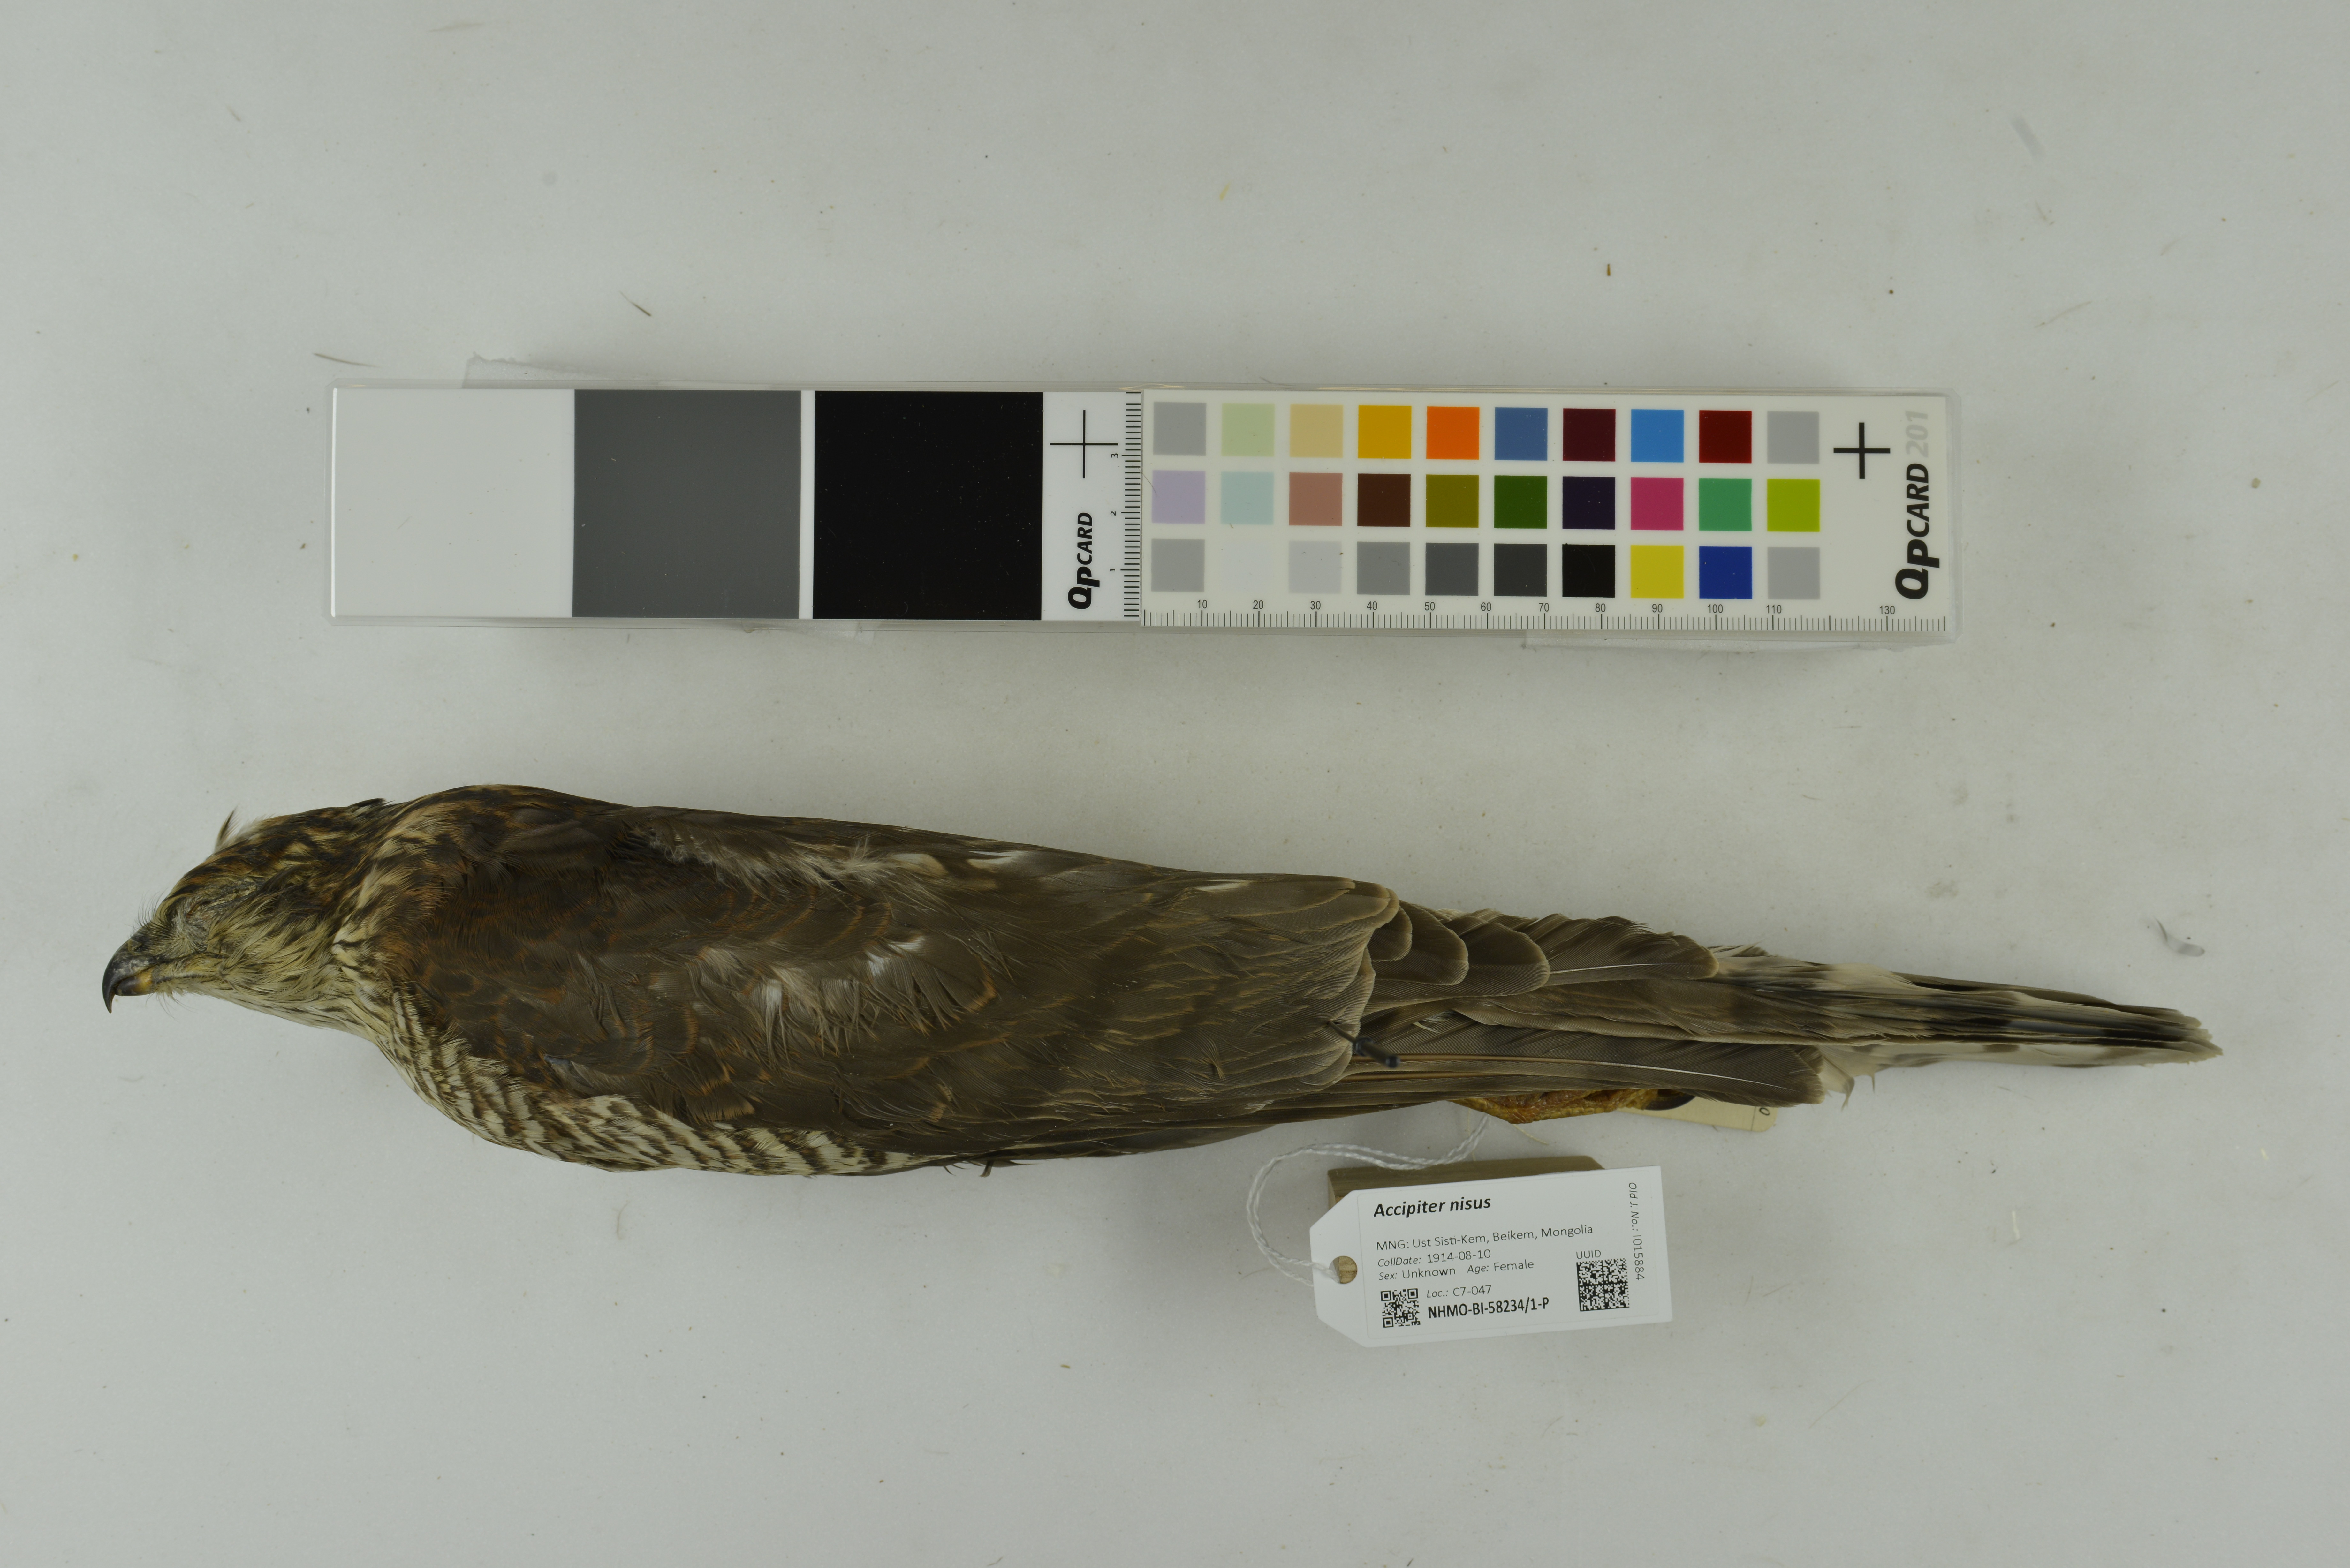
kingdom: Animalia
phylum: Chordata
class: Aves
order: Accipitriformes
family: Accipitridae
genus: Accipiter
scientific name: Accipiter nisus
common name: Eurasian sparrowhawk
